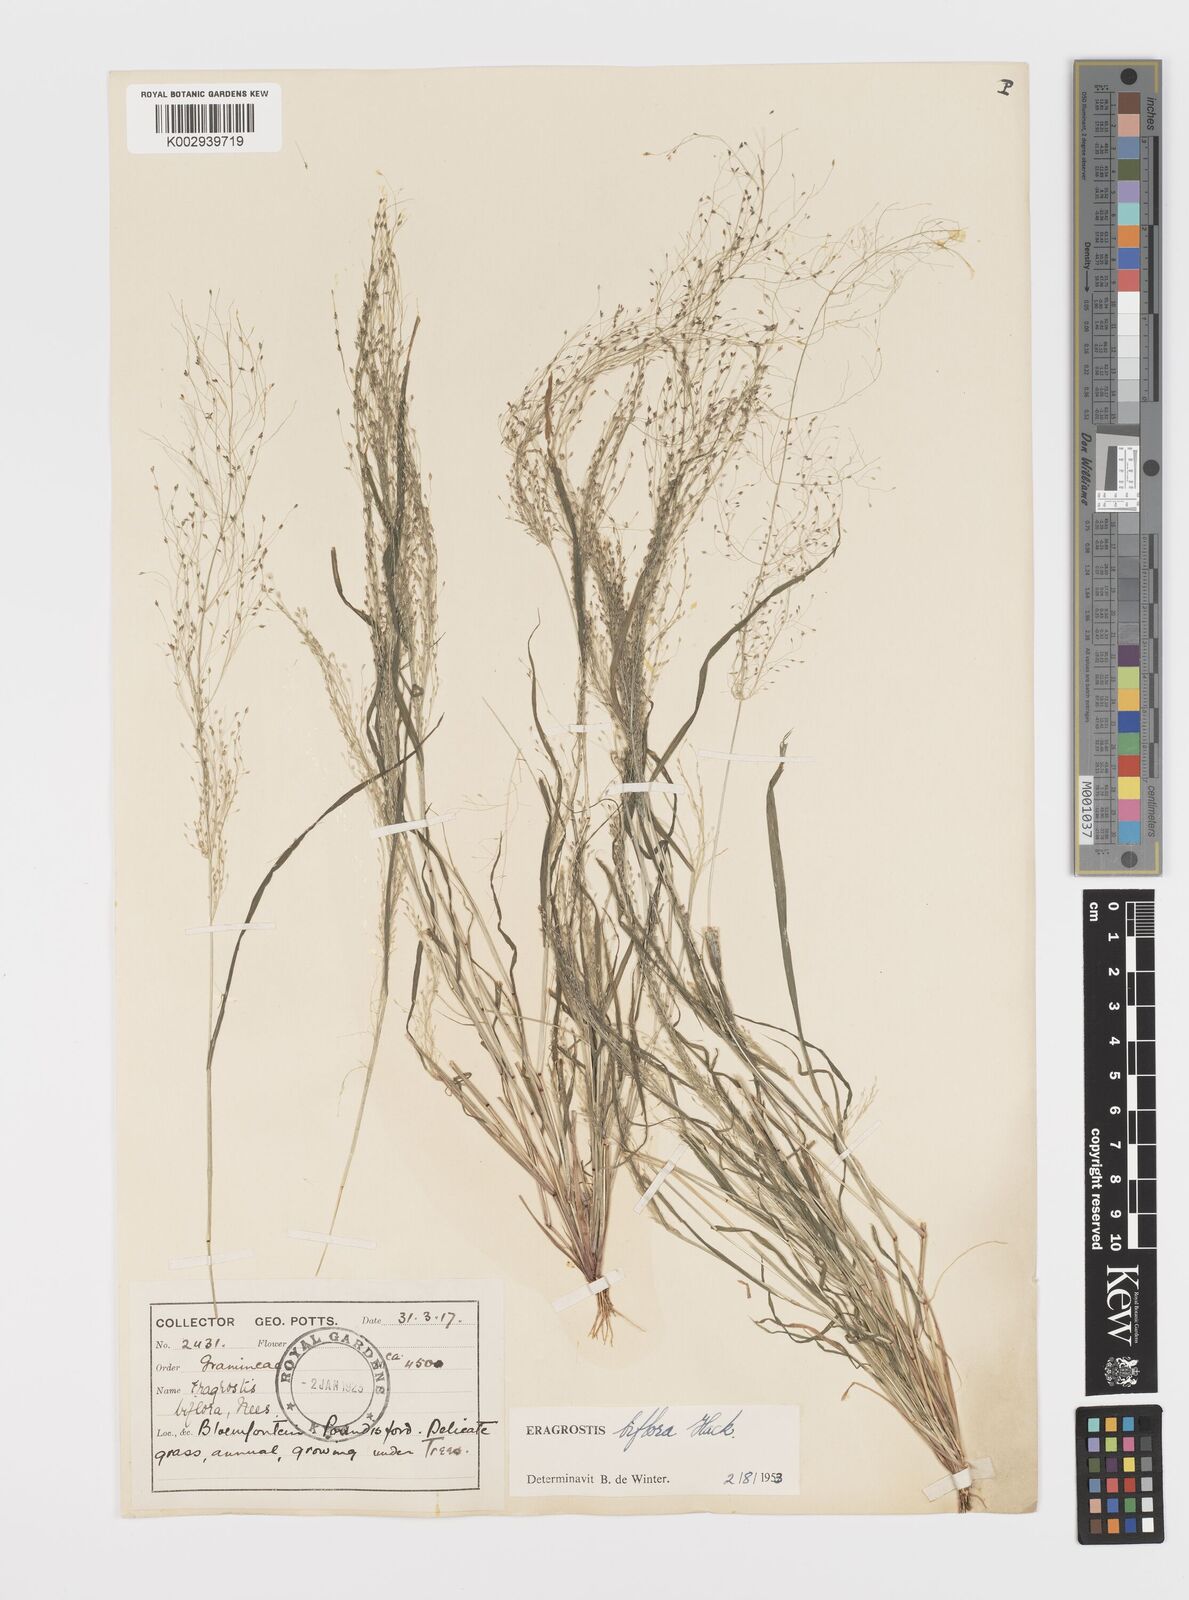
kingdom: Plantae
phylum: Tracheophyta
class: Liliopsida
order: Poales
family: Poaceae
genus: Eragrostis
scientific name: Eragrostis biflora
